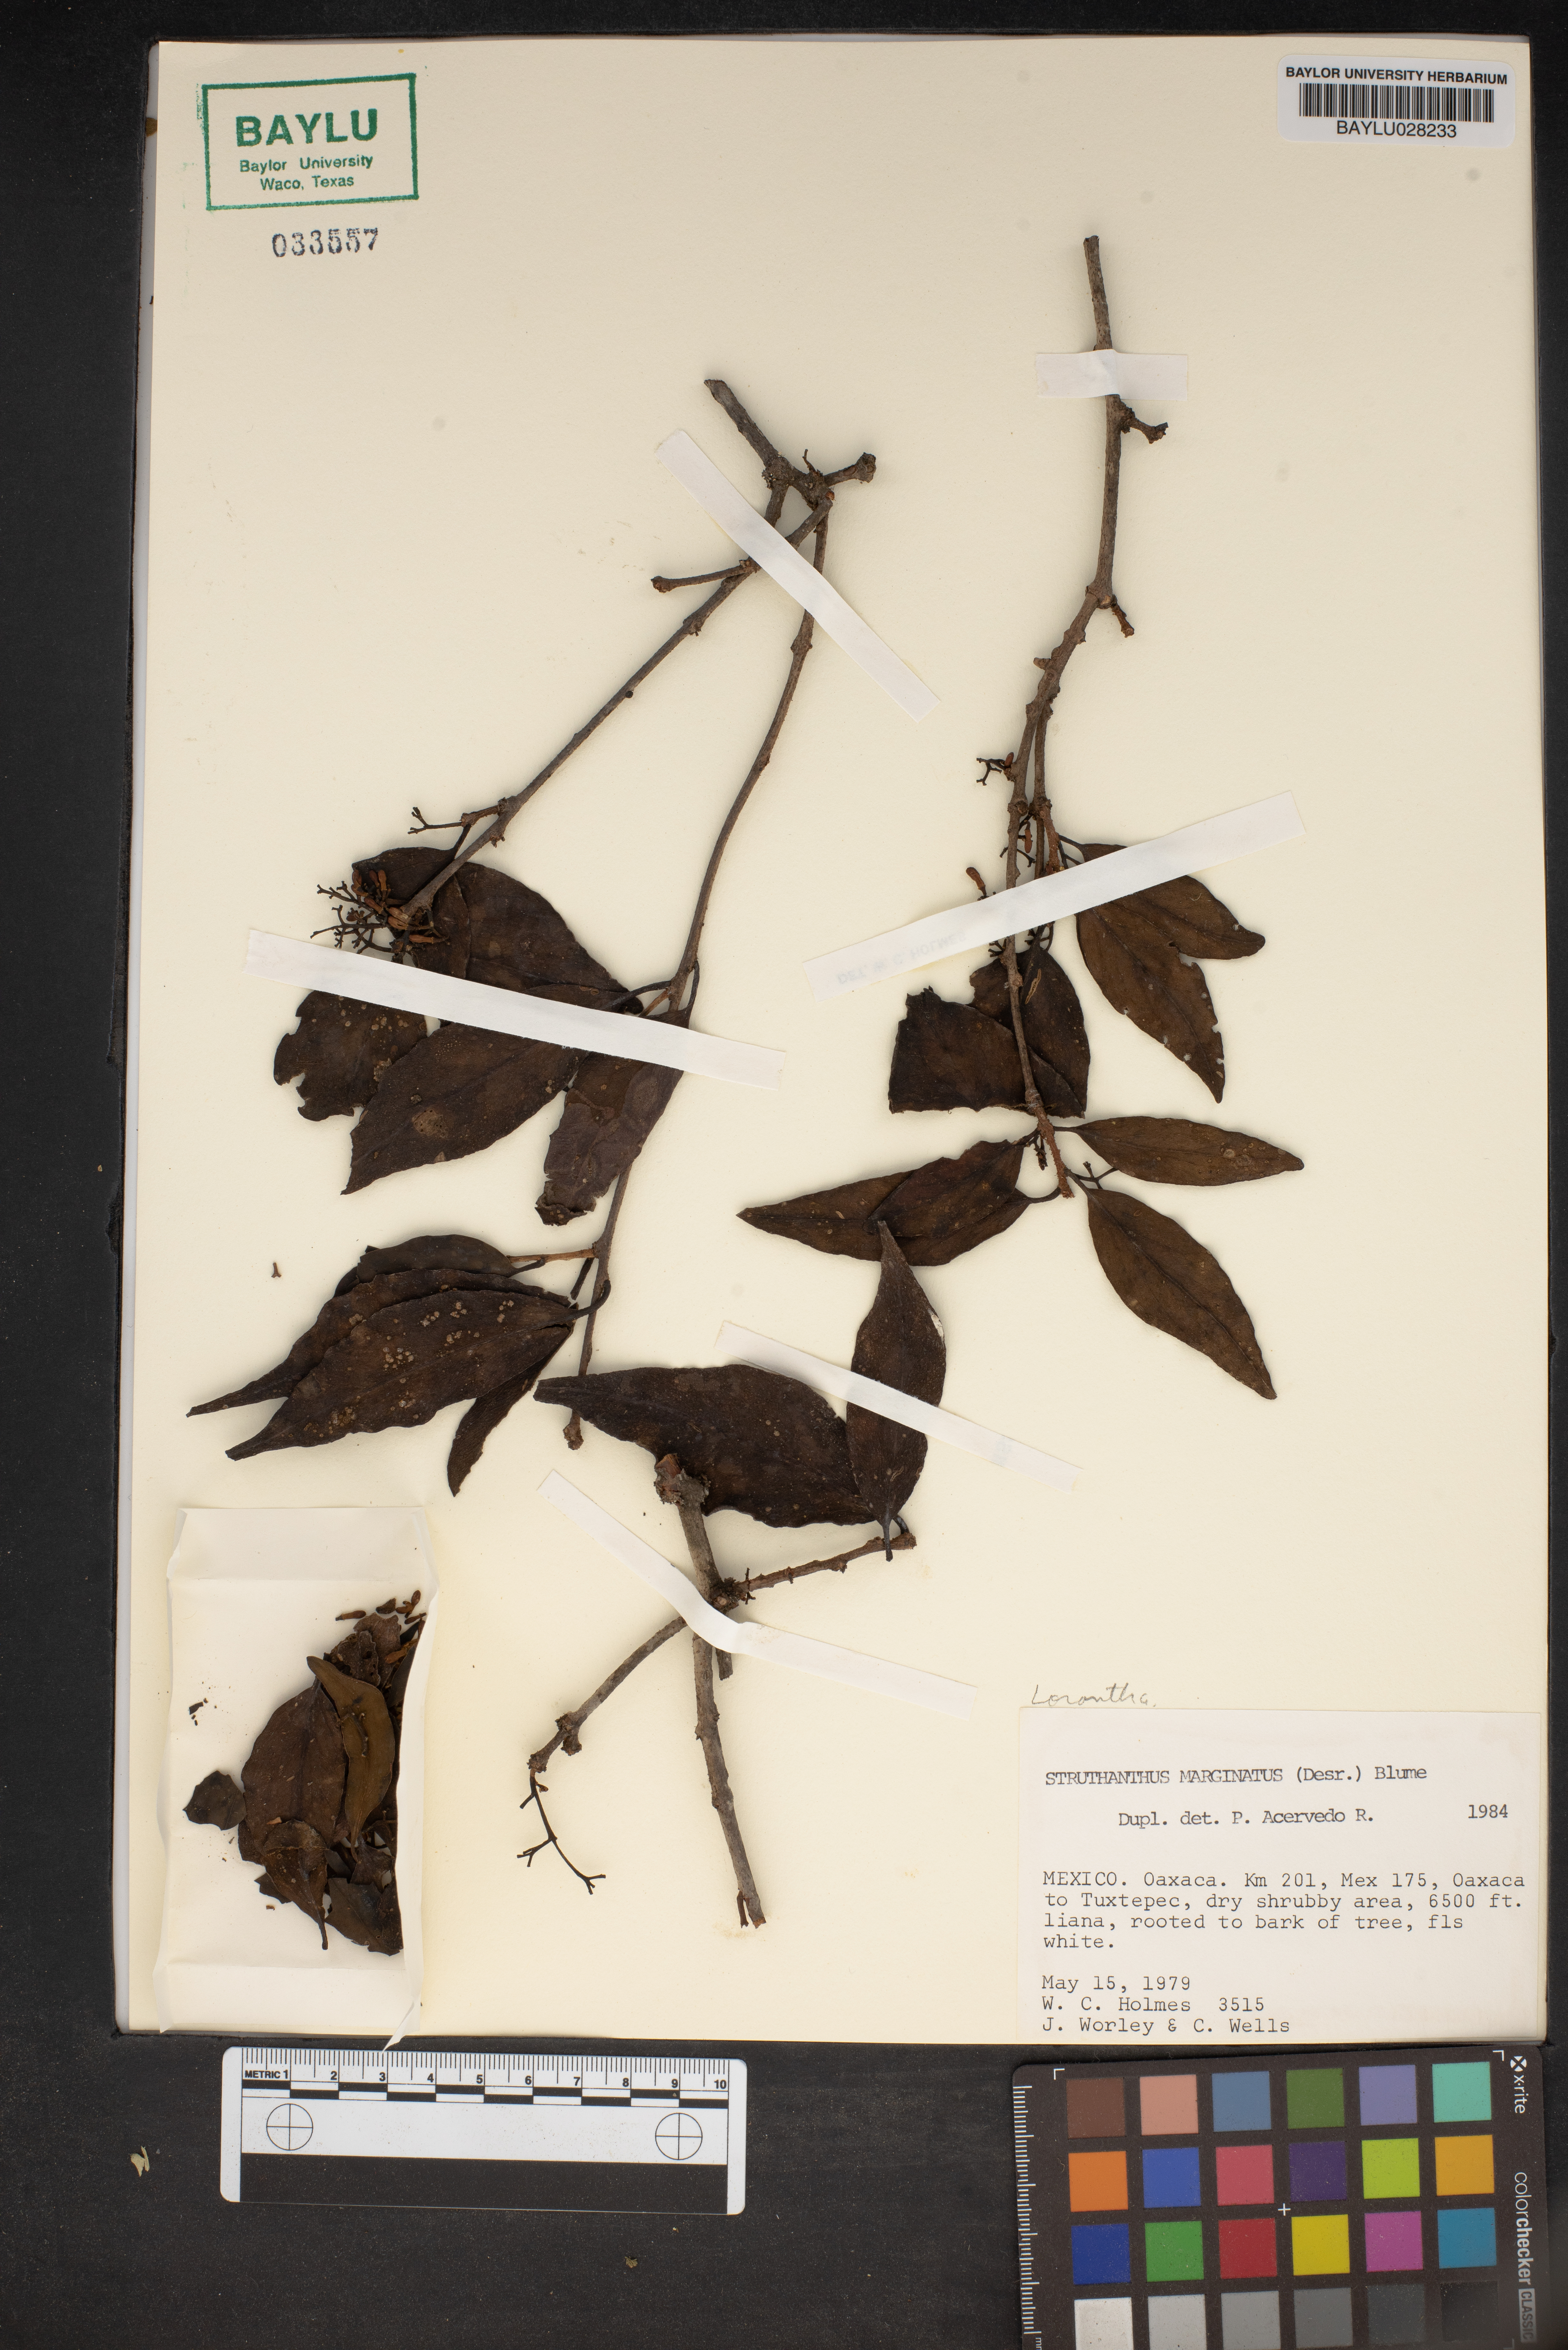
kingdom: Plantae
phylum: Tracheophyta
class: Magnoliopsida
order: Santalales
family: Loranthaceae
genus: Struthanthus
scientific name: Struthanthus marginatus
